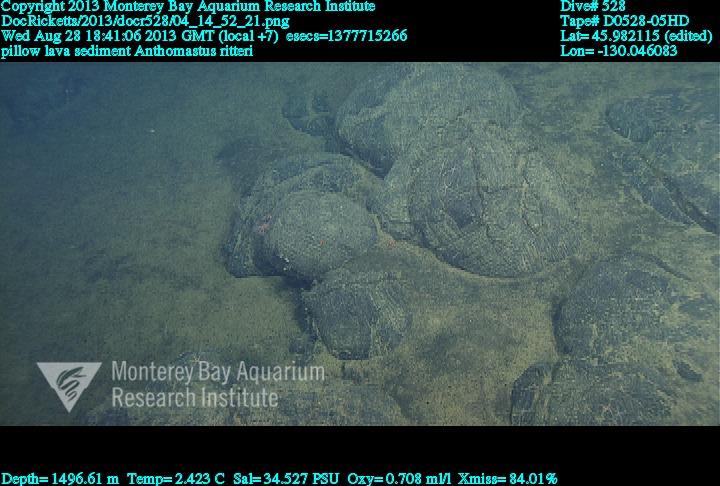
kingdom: Animalia
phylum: Cnidaria
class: Anthozoa
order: Scleralcyonacea
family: Coralliidae
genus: Heteropolypus
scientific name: Heteropolypus ritteri
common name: Ritter's soft coral
